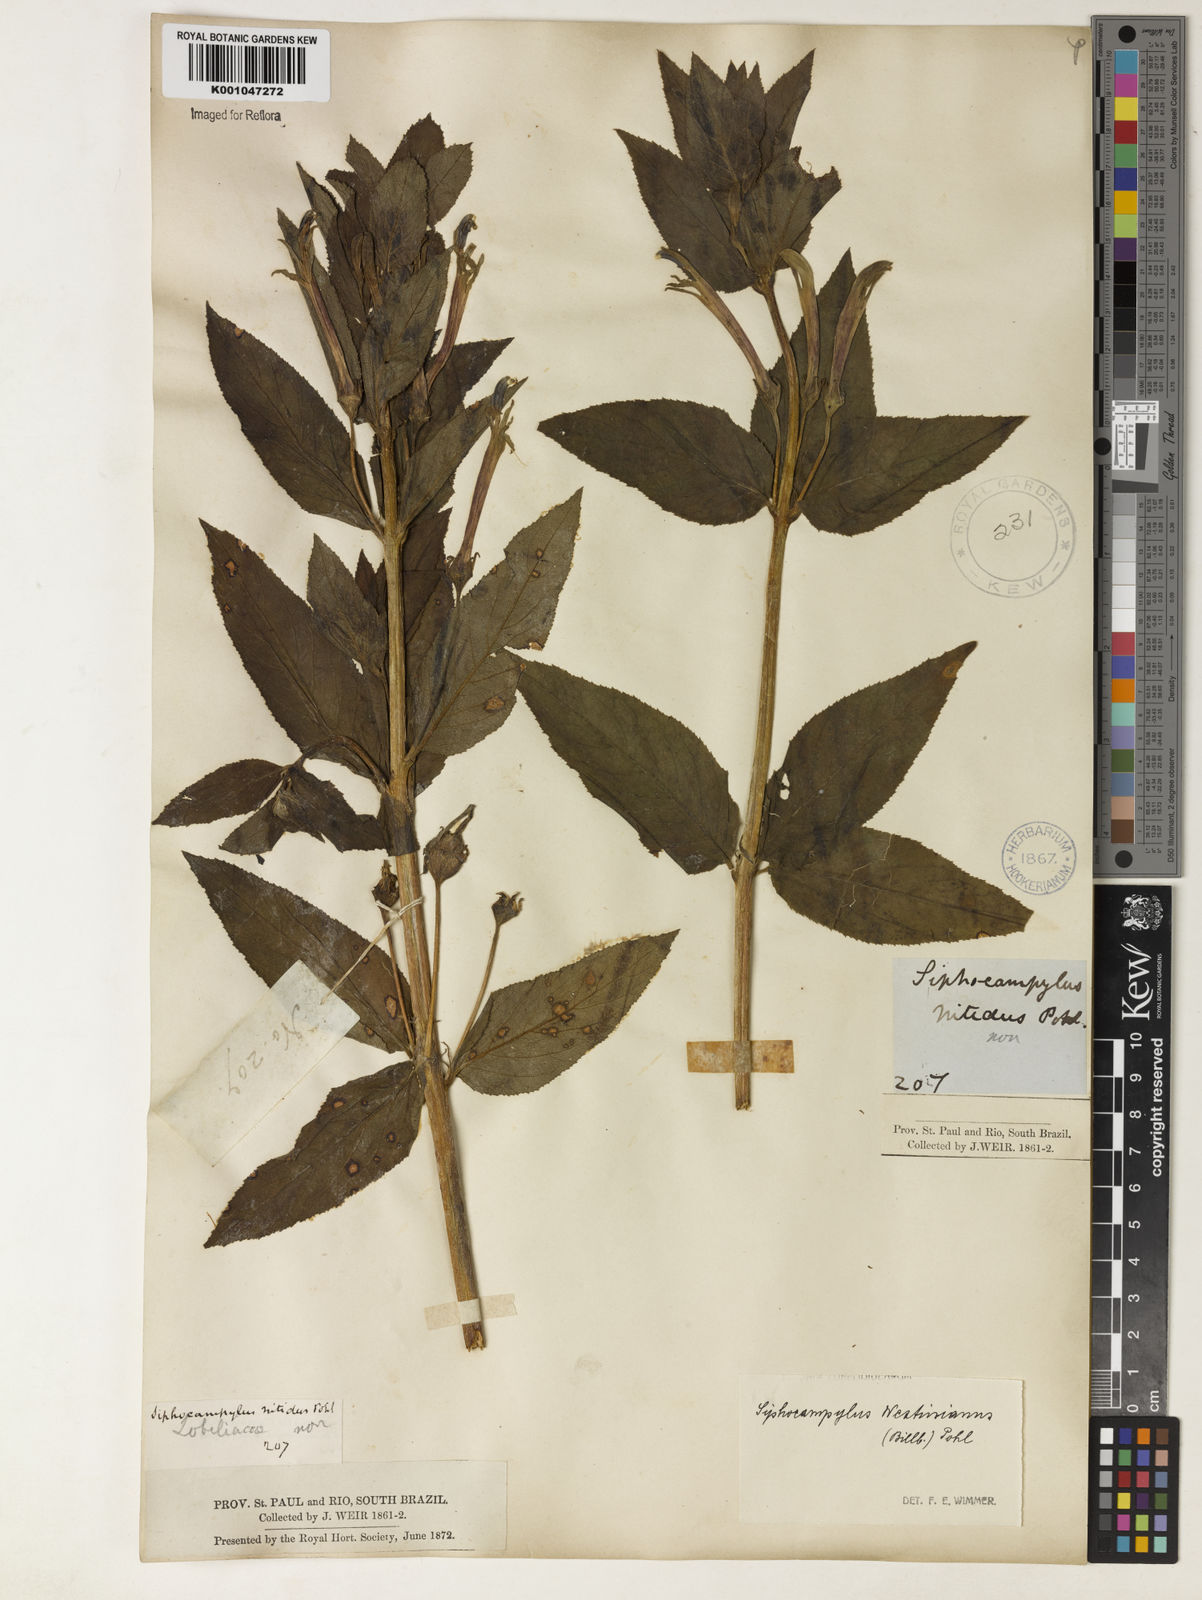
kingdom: Plantae
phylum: Tracheophyta
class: Magnoliopsida
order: Asterales
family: Campanulaceae
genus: Siphocampylus
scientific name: Siphocampylus westinianus
